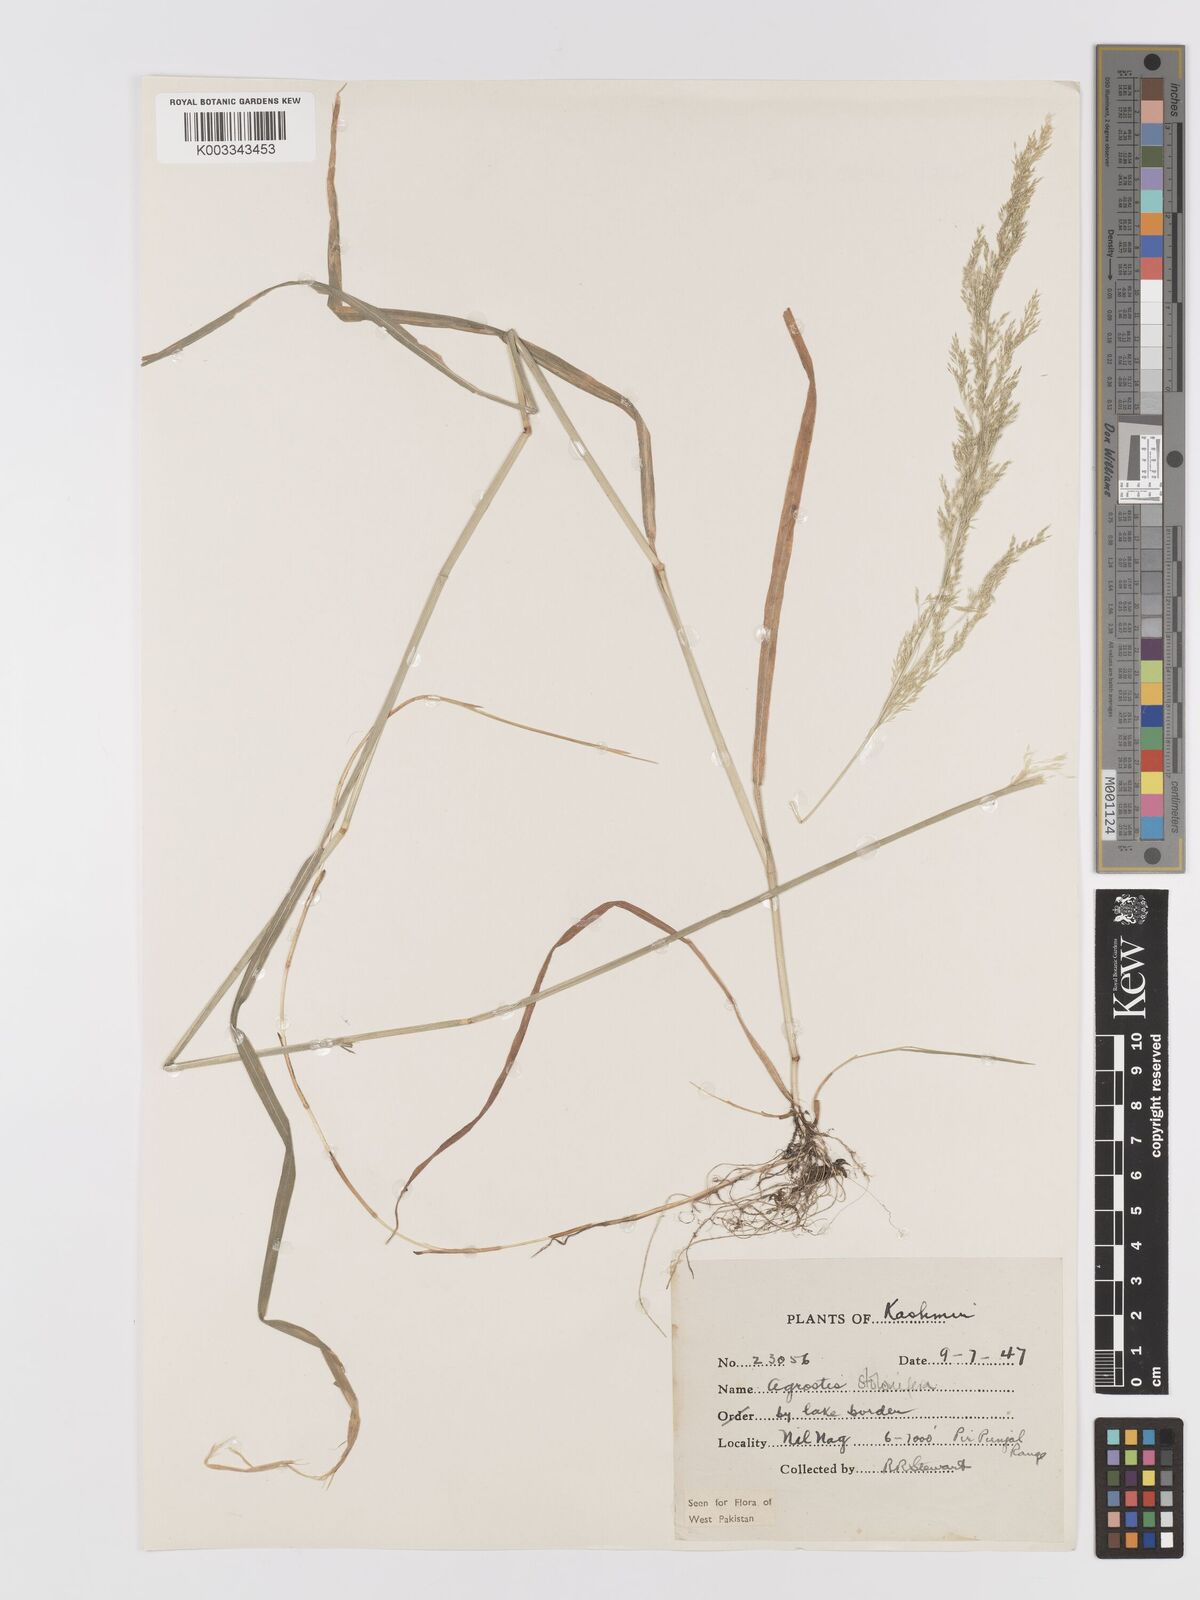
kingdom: Plantae
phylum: Tracheophyta
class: Liliopsida
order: Poales
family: Poaceae
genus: Agrostis
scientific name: Agrostis stolonifera
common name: Creeping bentgrass
